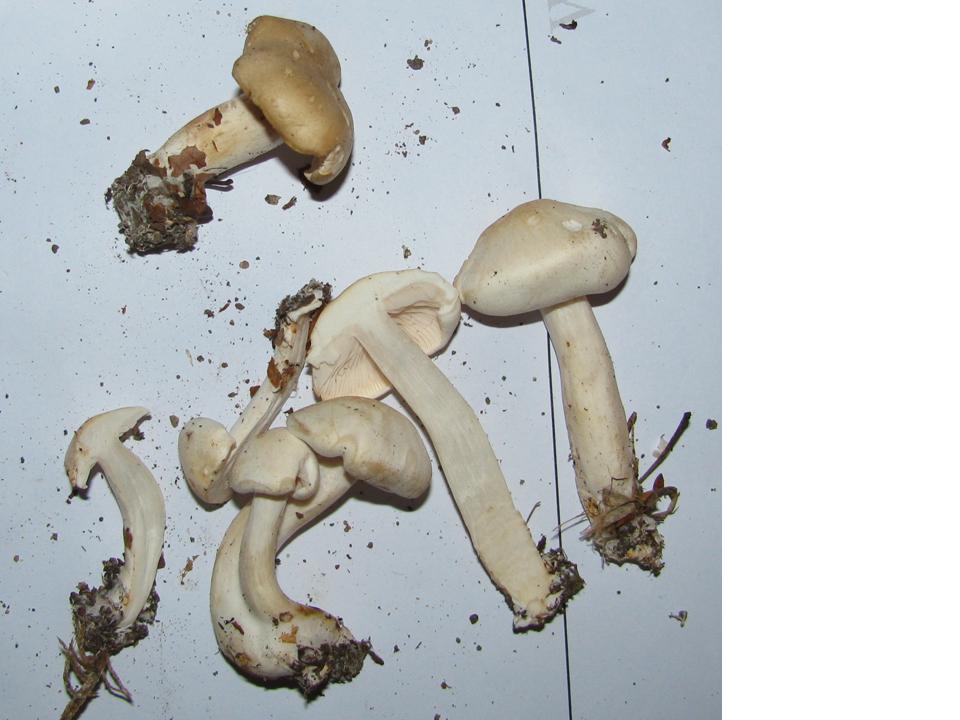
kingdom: Fungi
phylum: Basidiomycota
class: Agaricomycetes
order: Agaricales
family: Tricholomataceae
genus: Tricholoma
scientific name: Tricholoma album
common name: honning-ridderhat
